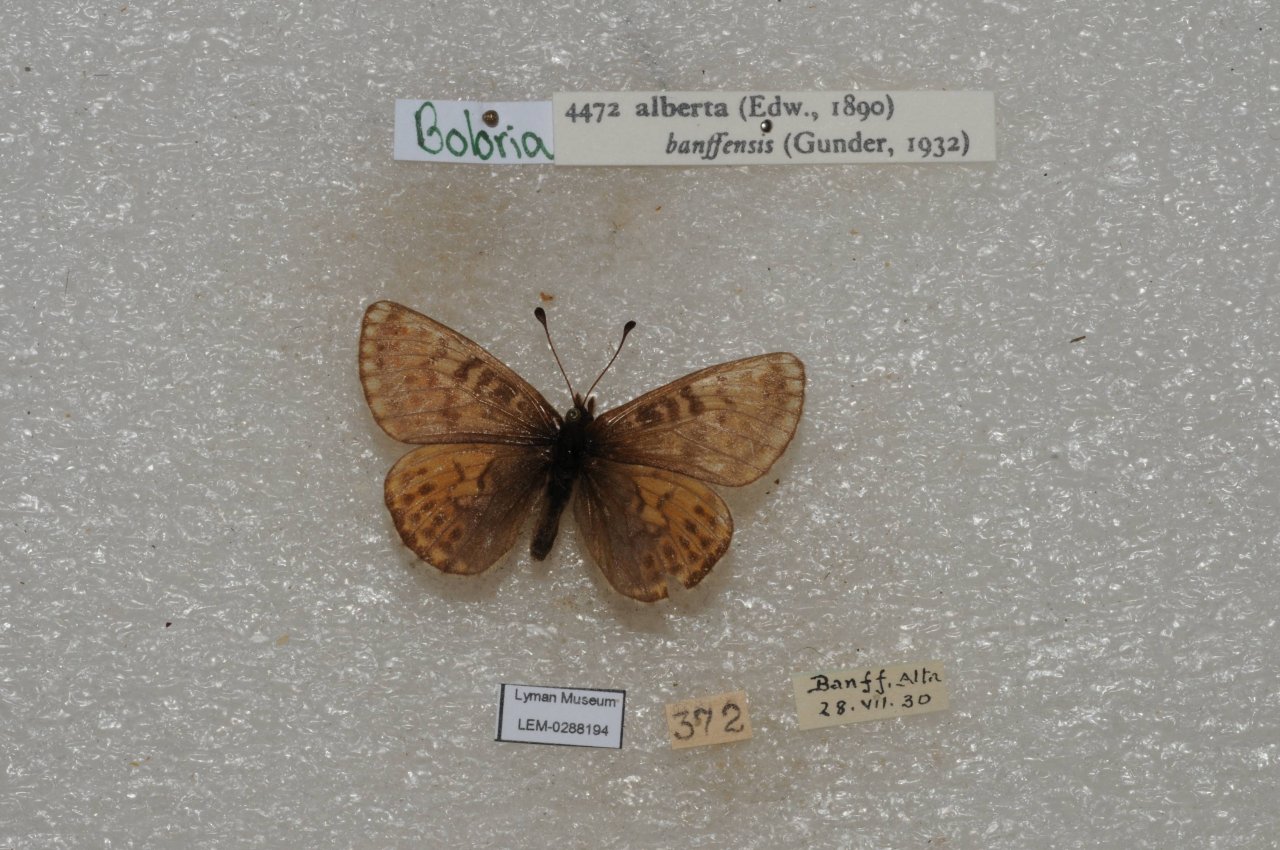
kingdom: Animalia
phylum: Arthropoda
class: Insecta
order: Lepidoptera
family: Nymphalidae
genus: Clossiana
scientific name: Clossiana alberta
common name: Alberta Fritillary
